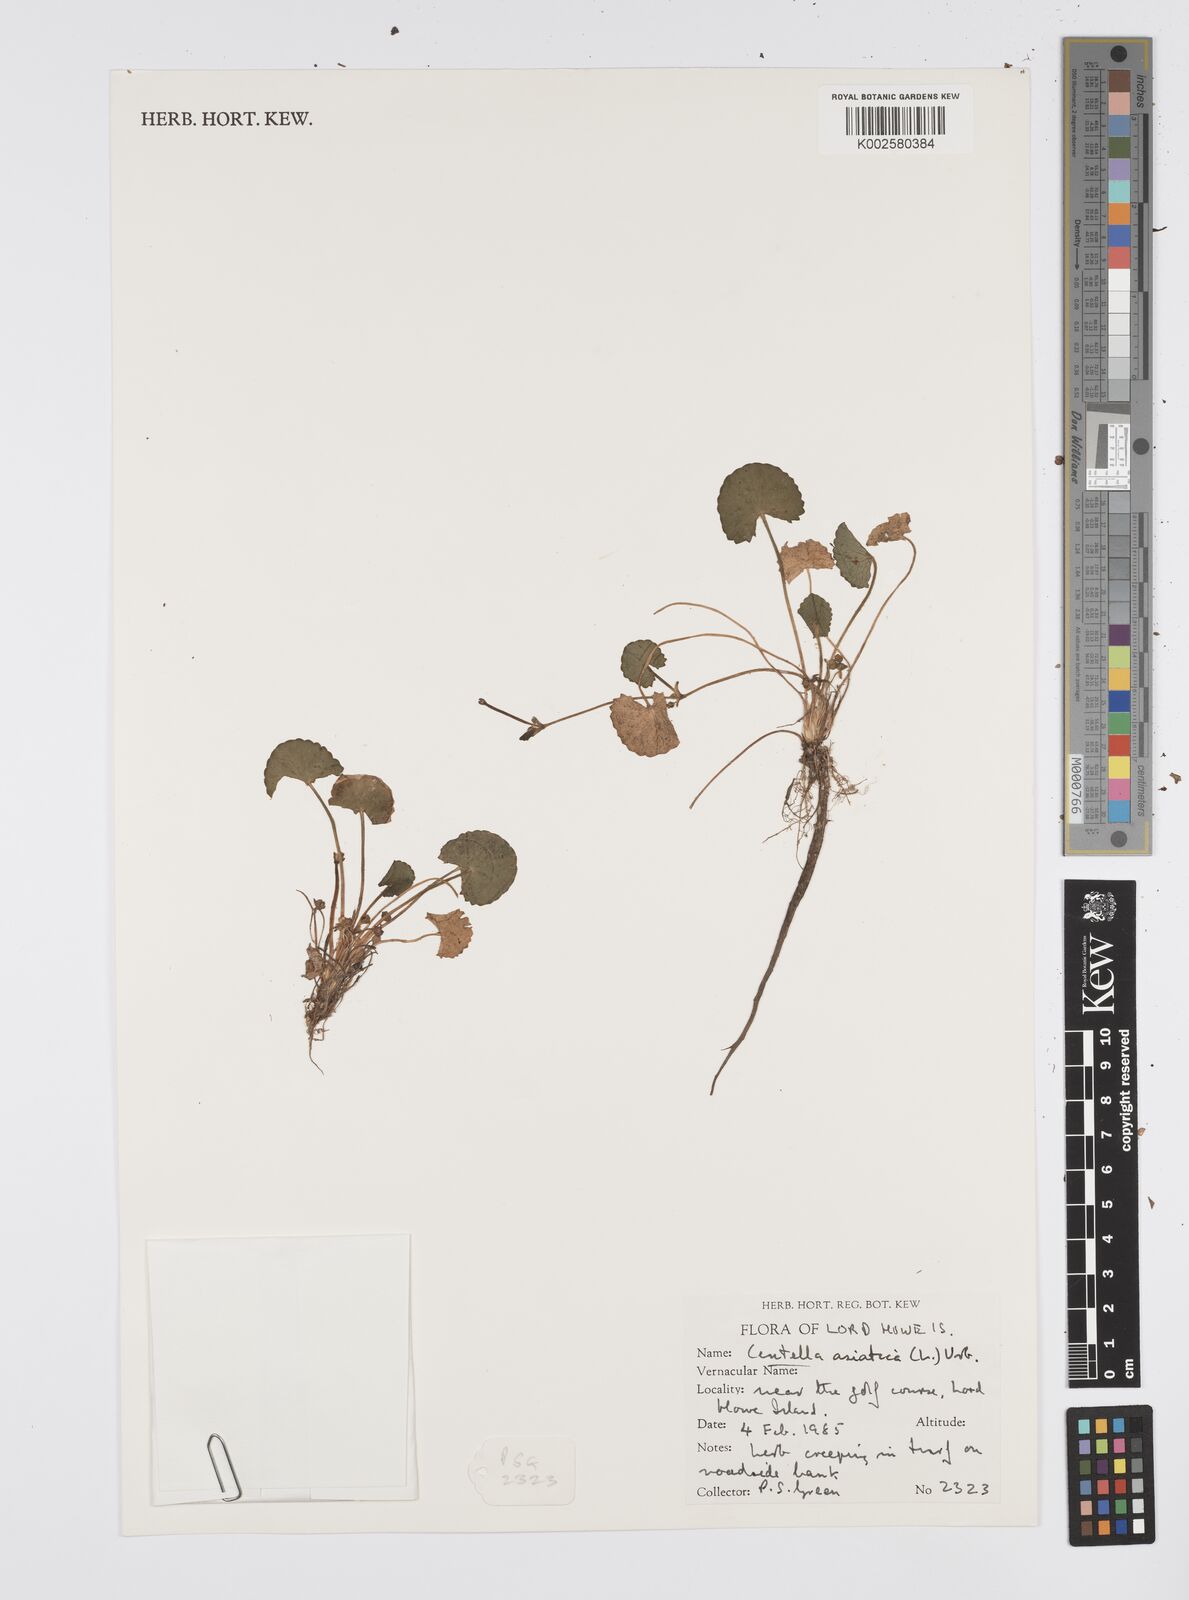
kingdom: Plantae
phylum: Tracheophyta
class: Magnoliopsida
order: Apiales
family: Apiaceae
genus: Centella
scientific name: Centella asiatica
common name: Spadeleaf
